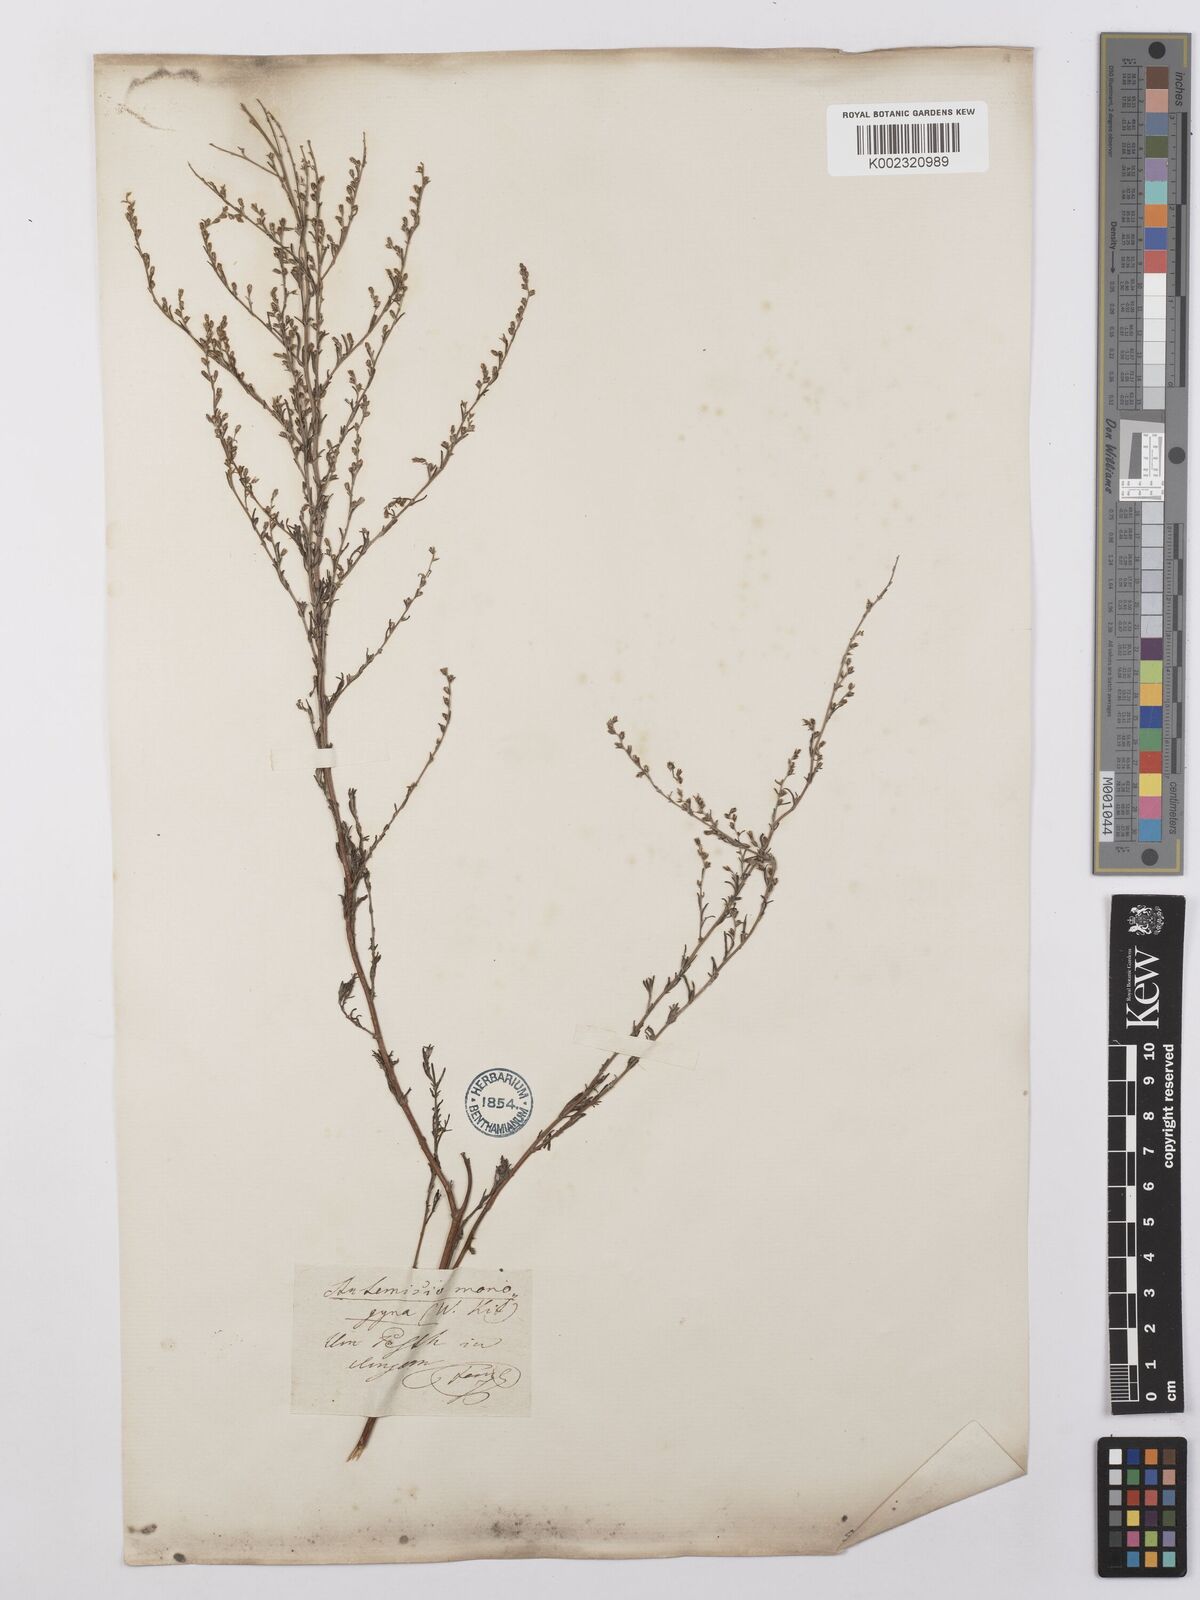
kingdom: Plantae
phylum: Tracheophyta
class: Magnoliopsida
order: Asterales
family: Asteraceae
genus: Artemisia
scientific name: Artemisia santonicum
